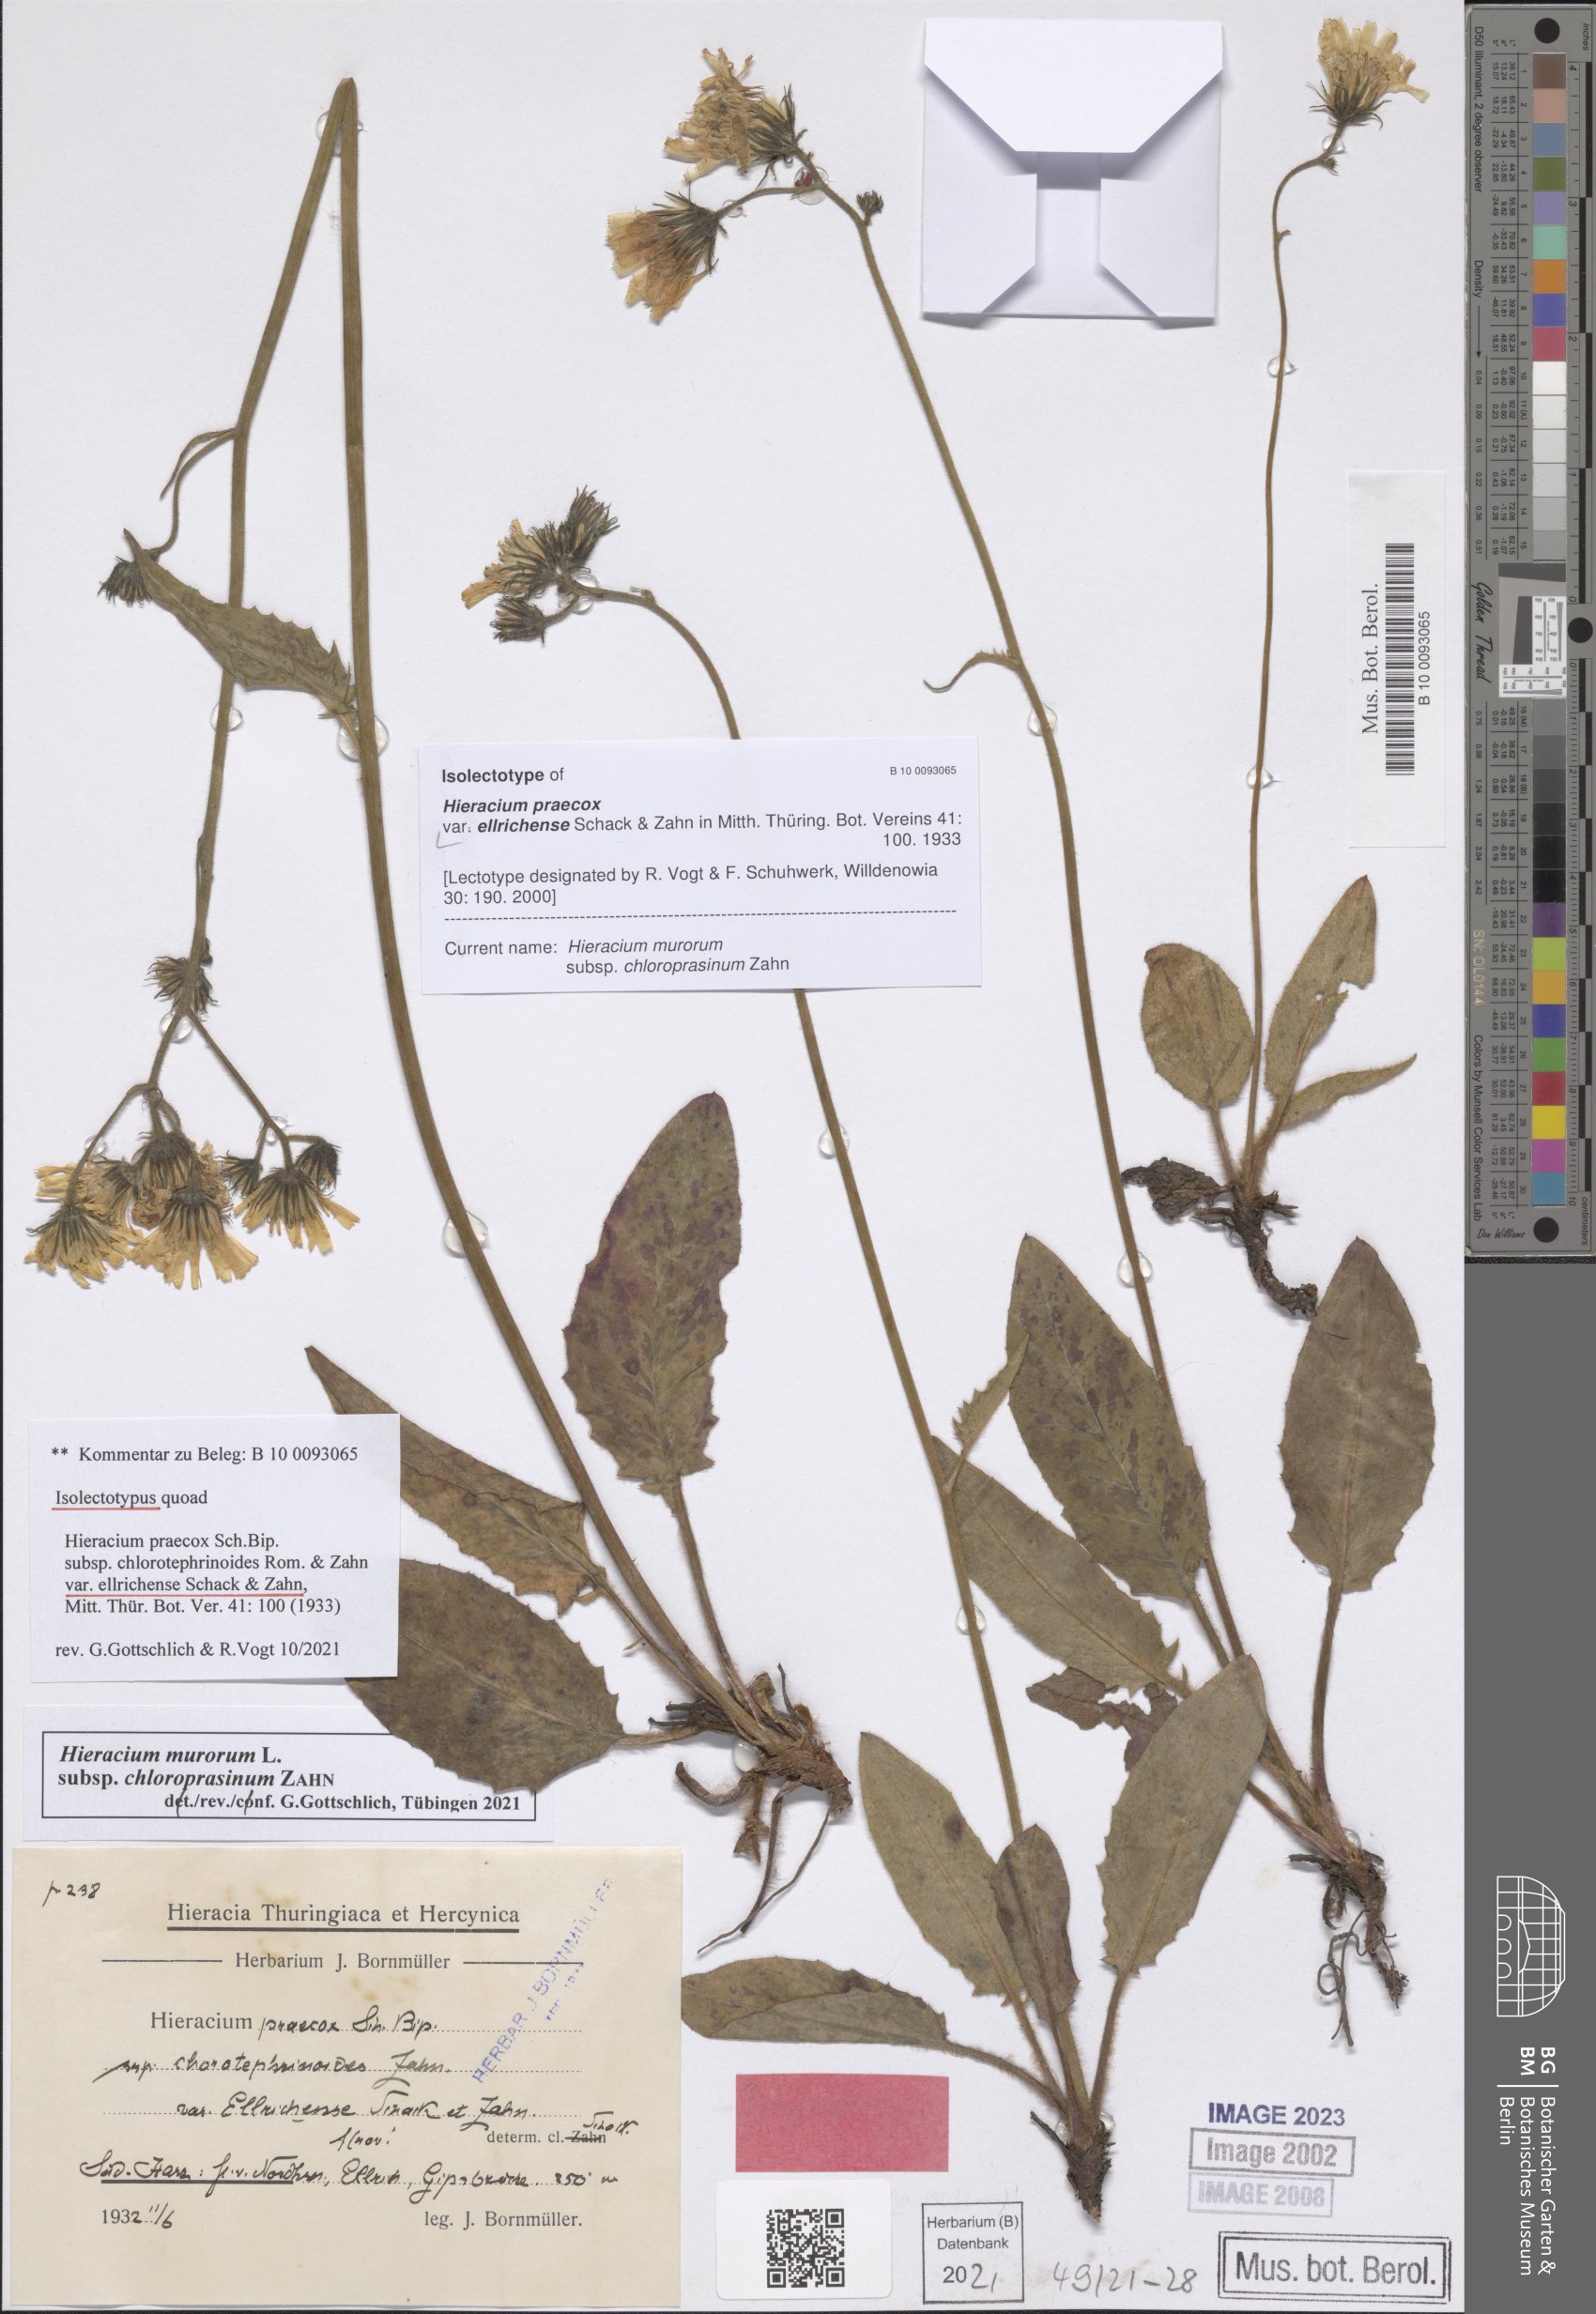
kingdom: Plantae
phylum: Tracheophyta
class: Magnoliopsida
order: Asterales
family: Asteraceae
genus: Hieracium
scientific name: Hieracium praecox
